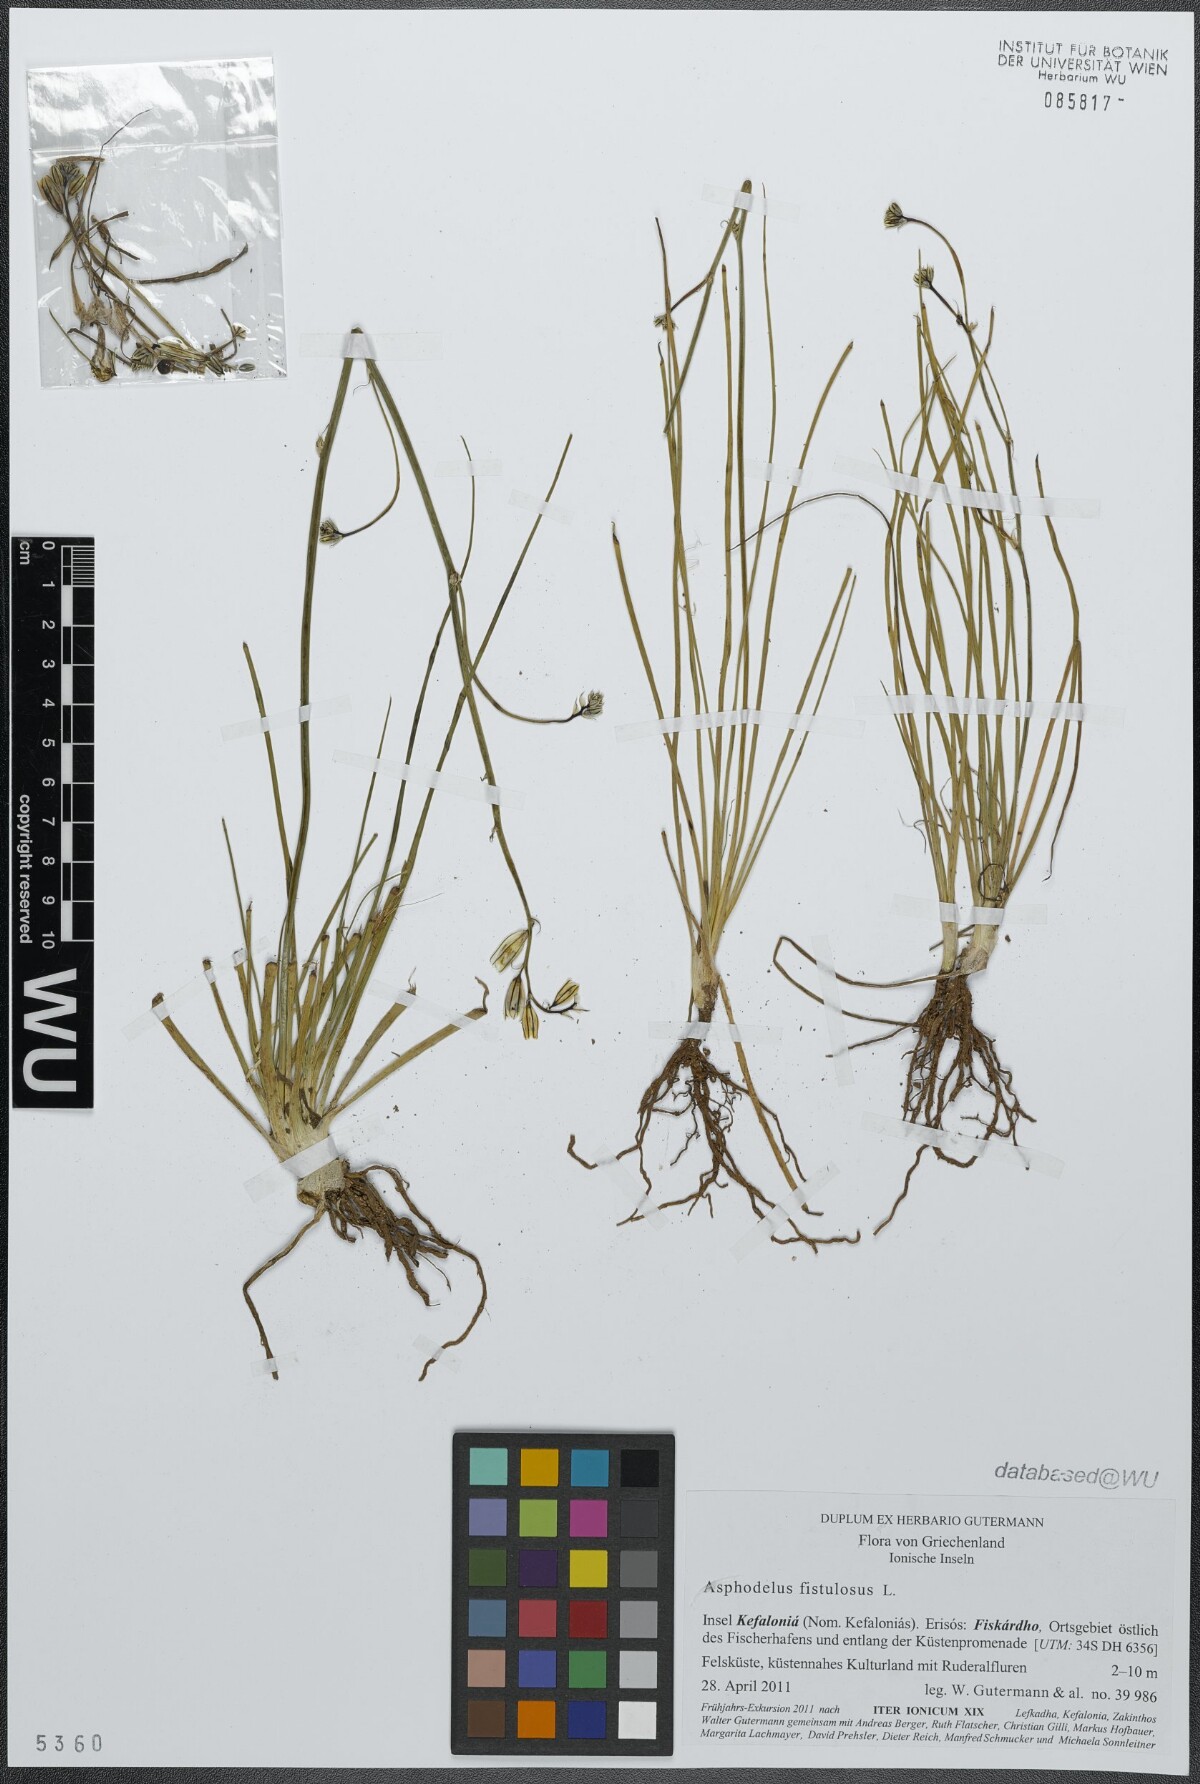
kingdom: Plantae
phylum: Tracheophyta
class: Liliopsida
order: Asparagales
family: Asphodelaceae
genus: Asphodelus
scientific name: Asphodelus fistulosus
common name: Onionweed
